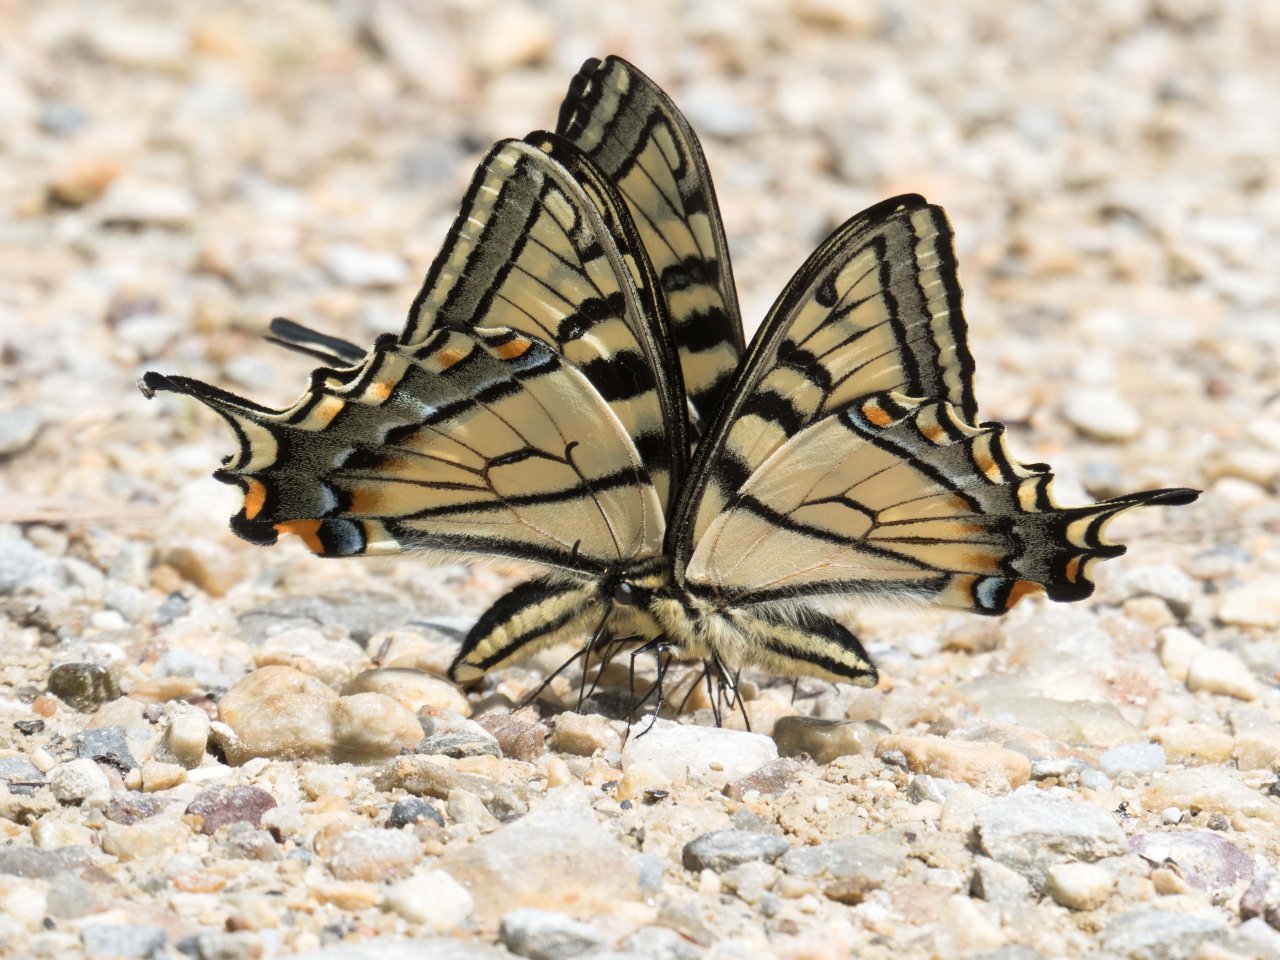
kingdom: Animalia
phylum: Arthropoda
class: Insecta
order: Lepidoptera
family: Papilionidae
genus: Pterourus
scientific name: Pterourus canadensis
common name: Canadian Tiger Swallowtail
